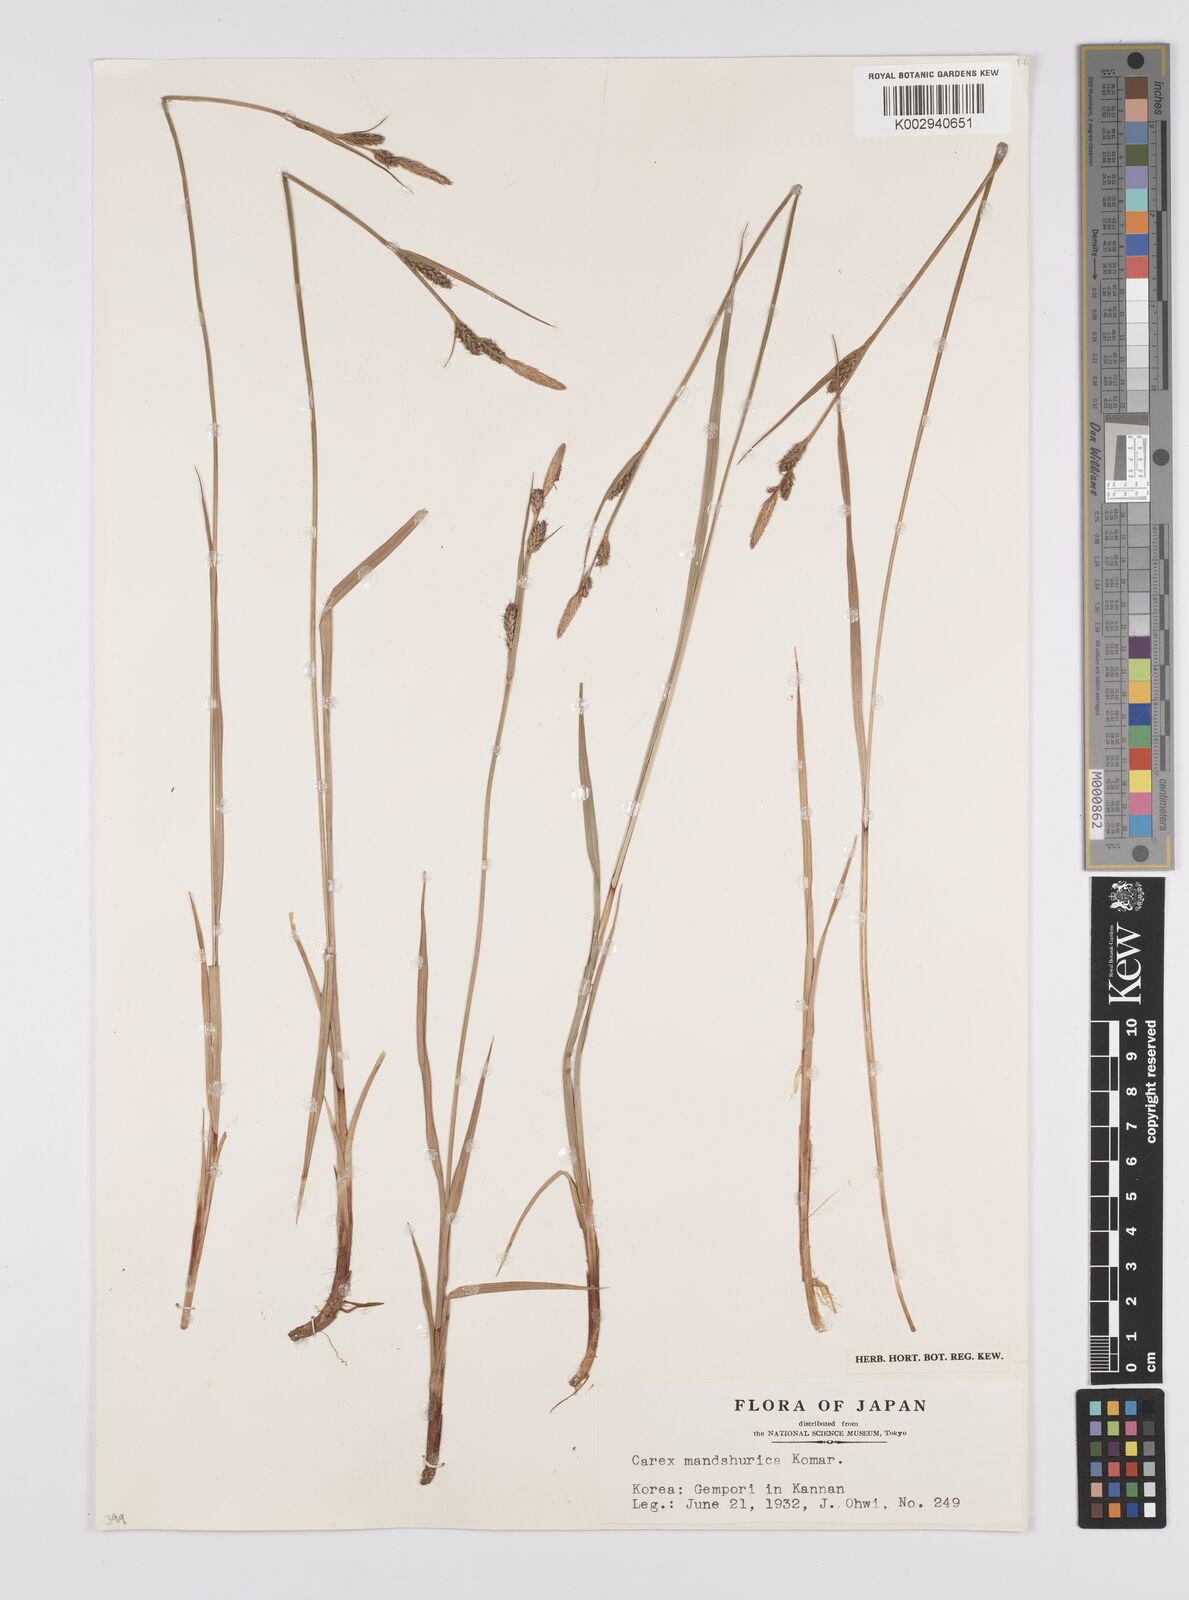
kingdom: Plantae
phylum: Tracheophyta
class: Liliopsida
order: Poales
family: Cyperaceae
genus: Carex
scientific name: Carex mandshurica
